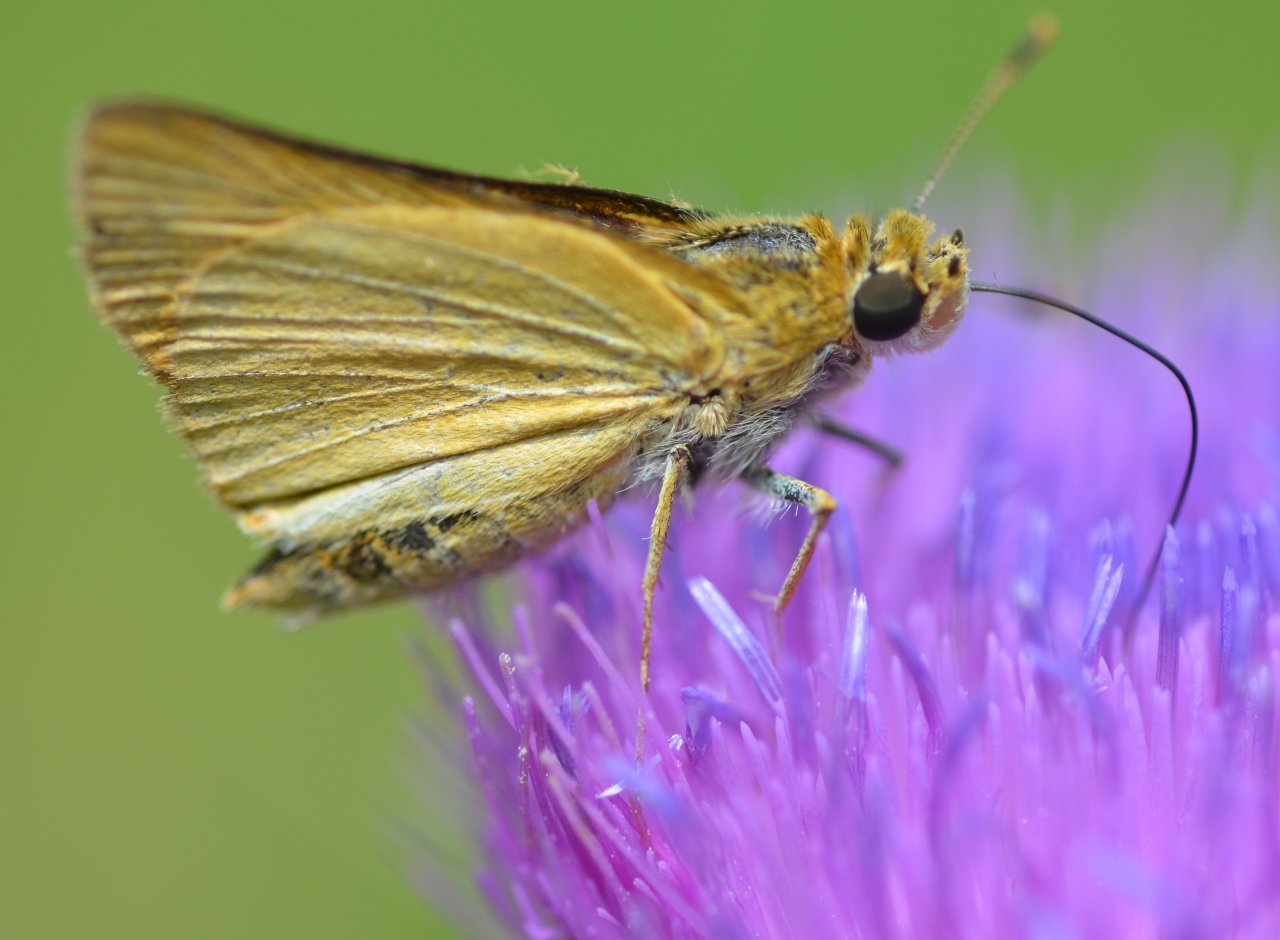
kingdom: Animalia
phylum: Arthropoda
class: Insecta
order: Lepidoptera
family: Hesperiidae
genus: Atrytone
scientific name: Atrytone delaware
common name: Delaware Skipper
